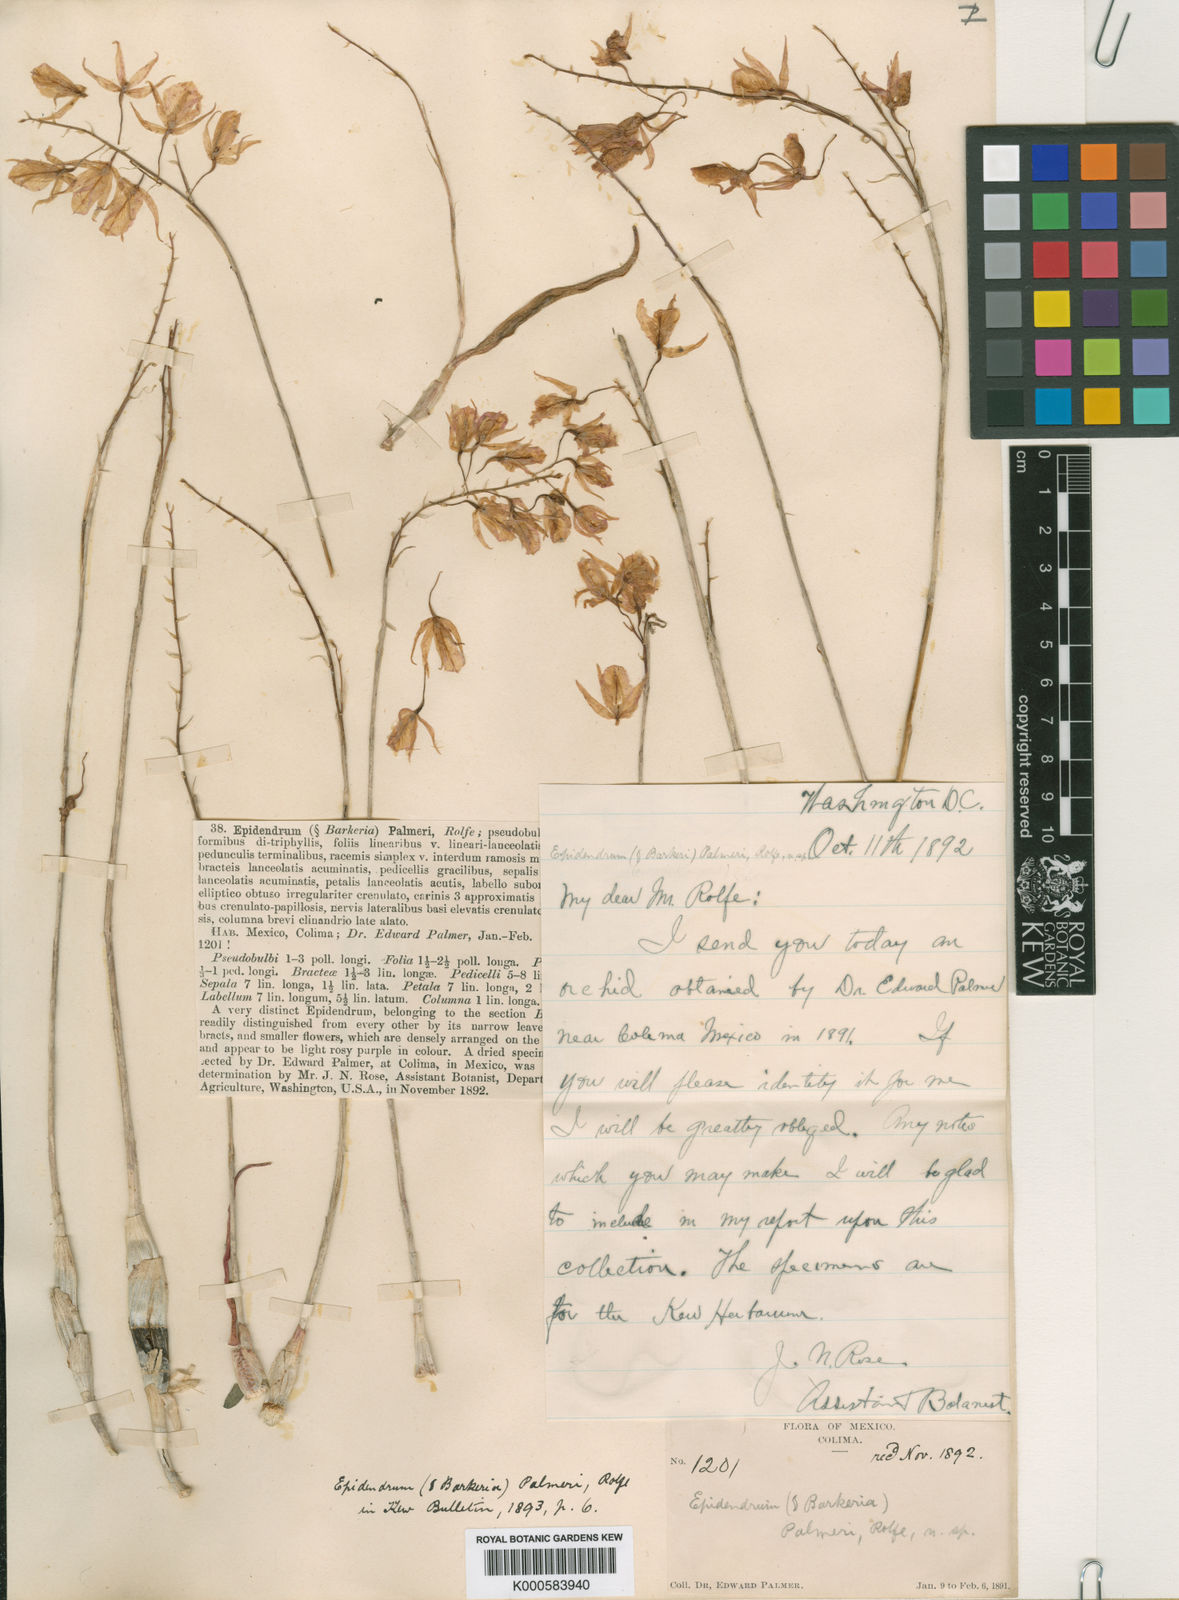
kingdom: Plantae
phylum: Tracheophyta
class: Liliopsida
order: Asparagales
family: Orchidaceae
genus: Barkeria
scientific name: Barkeria
